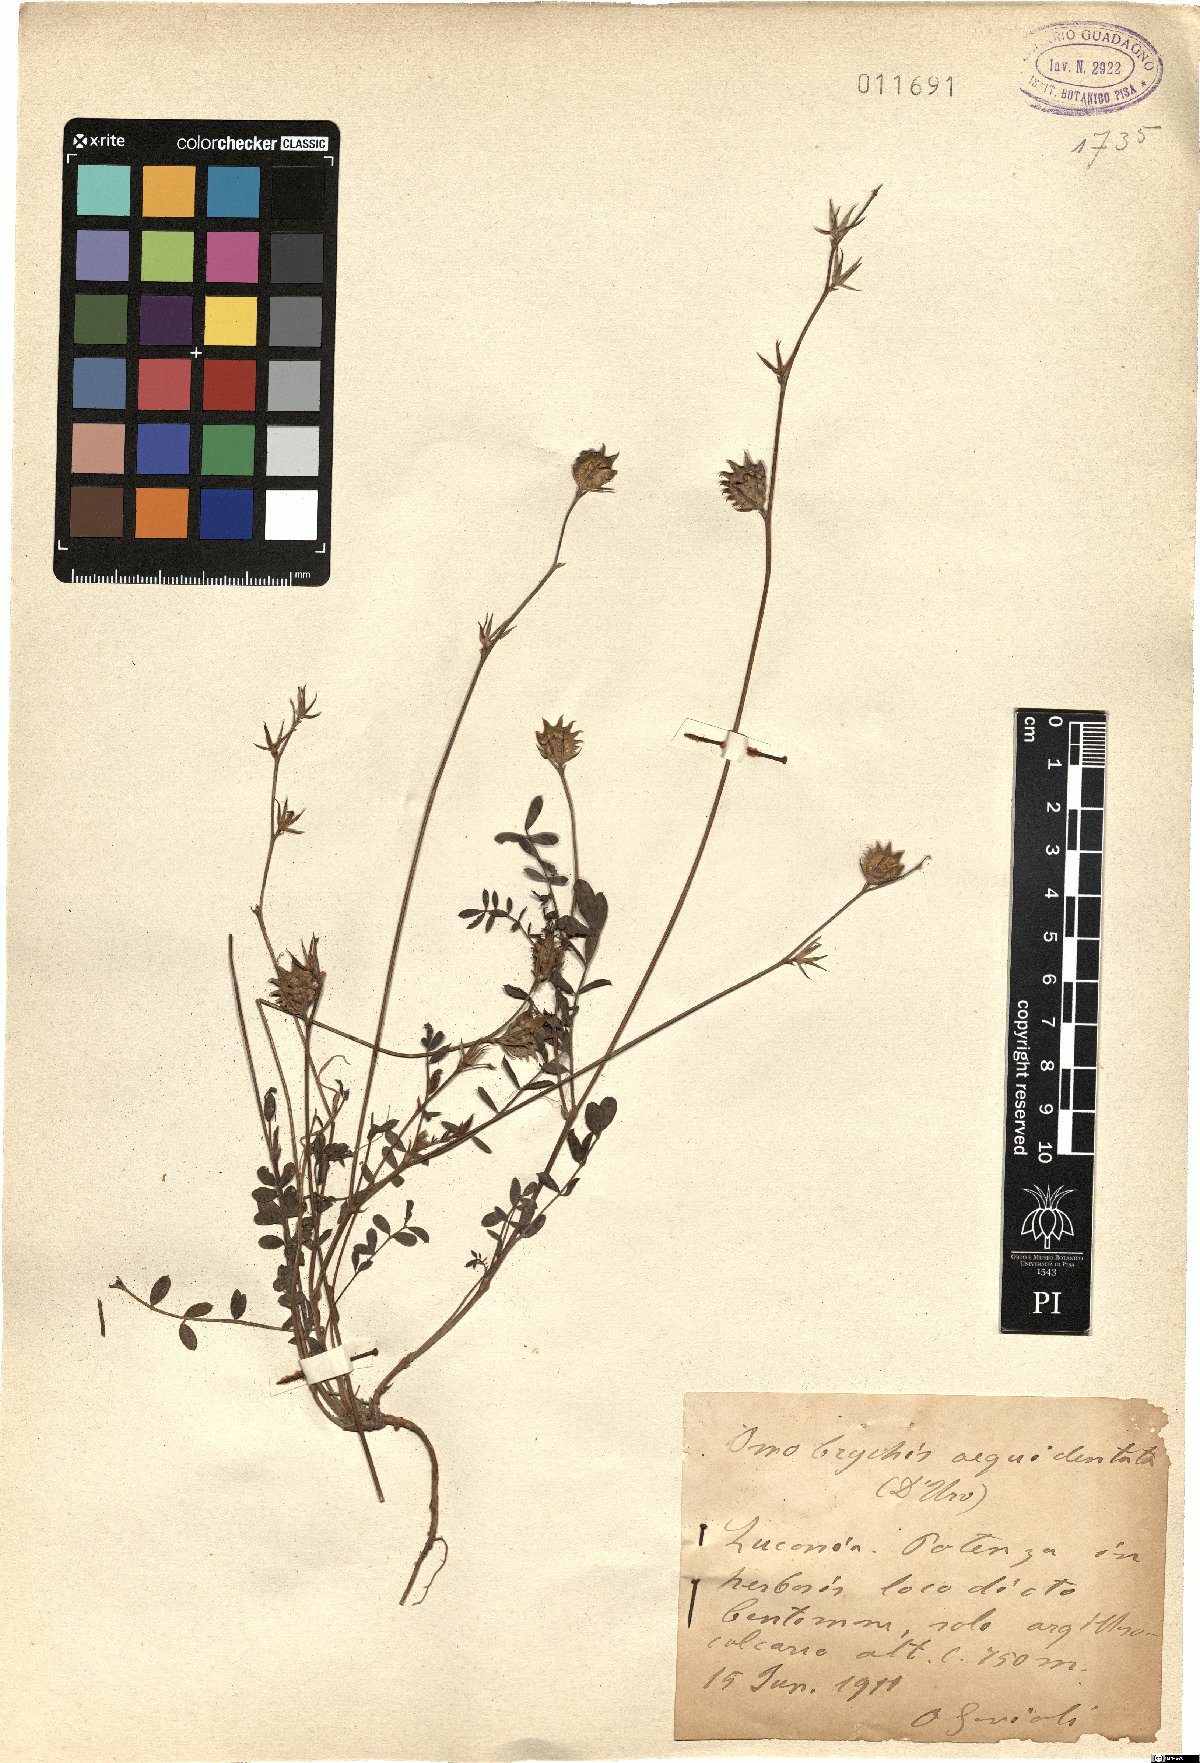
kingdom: Plantae
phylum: Tracheophyta
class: Magnoliopsida
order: Fabales
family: Fabaceae
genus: Onobrychis
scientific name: Onobrychis aequidentata
